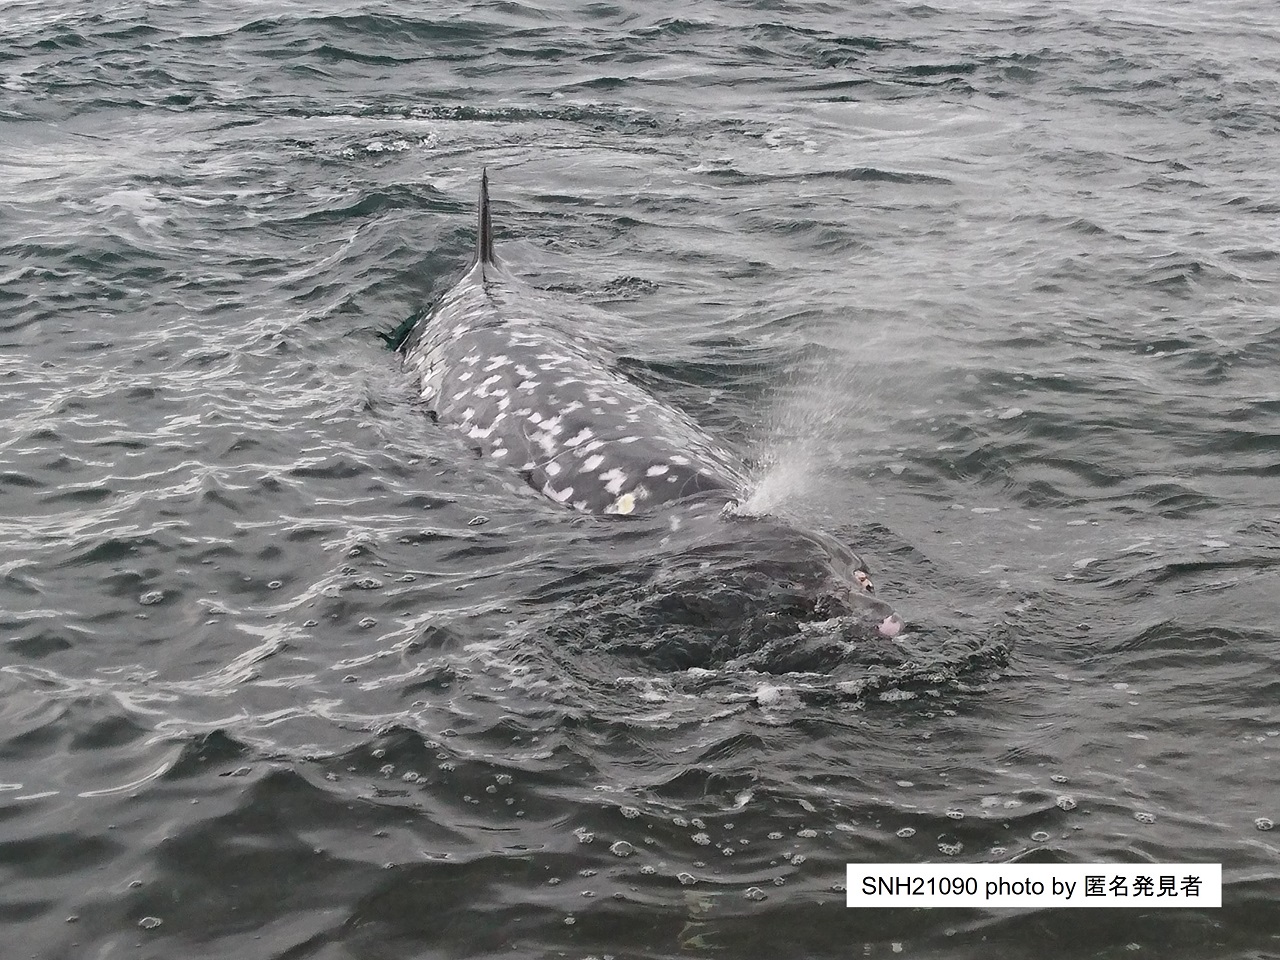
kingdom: Animalia
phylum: Chordata
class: Mammalia
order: Cetacea
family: Hyperoodontidae
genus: Mesoplodon
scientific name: Mesoplodon
